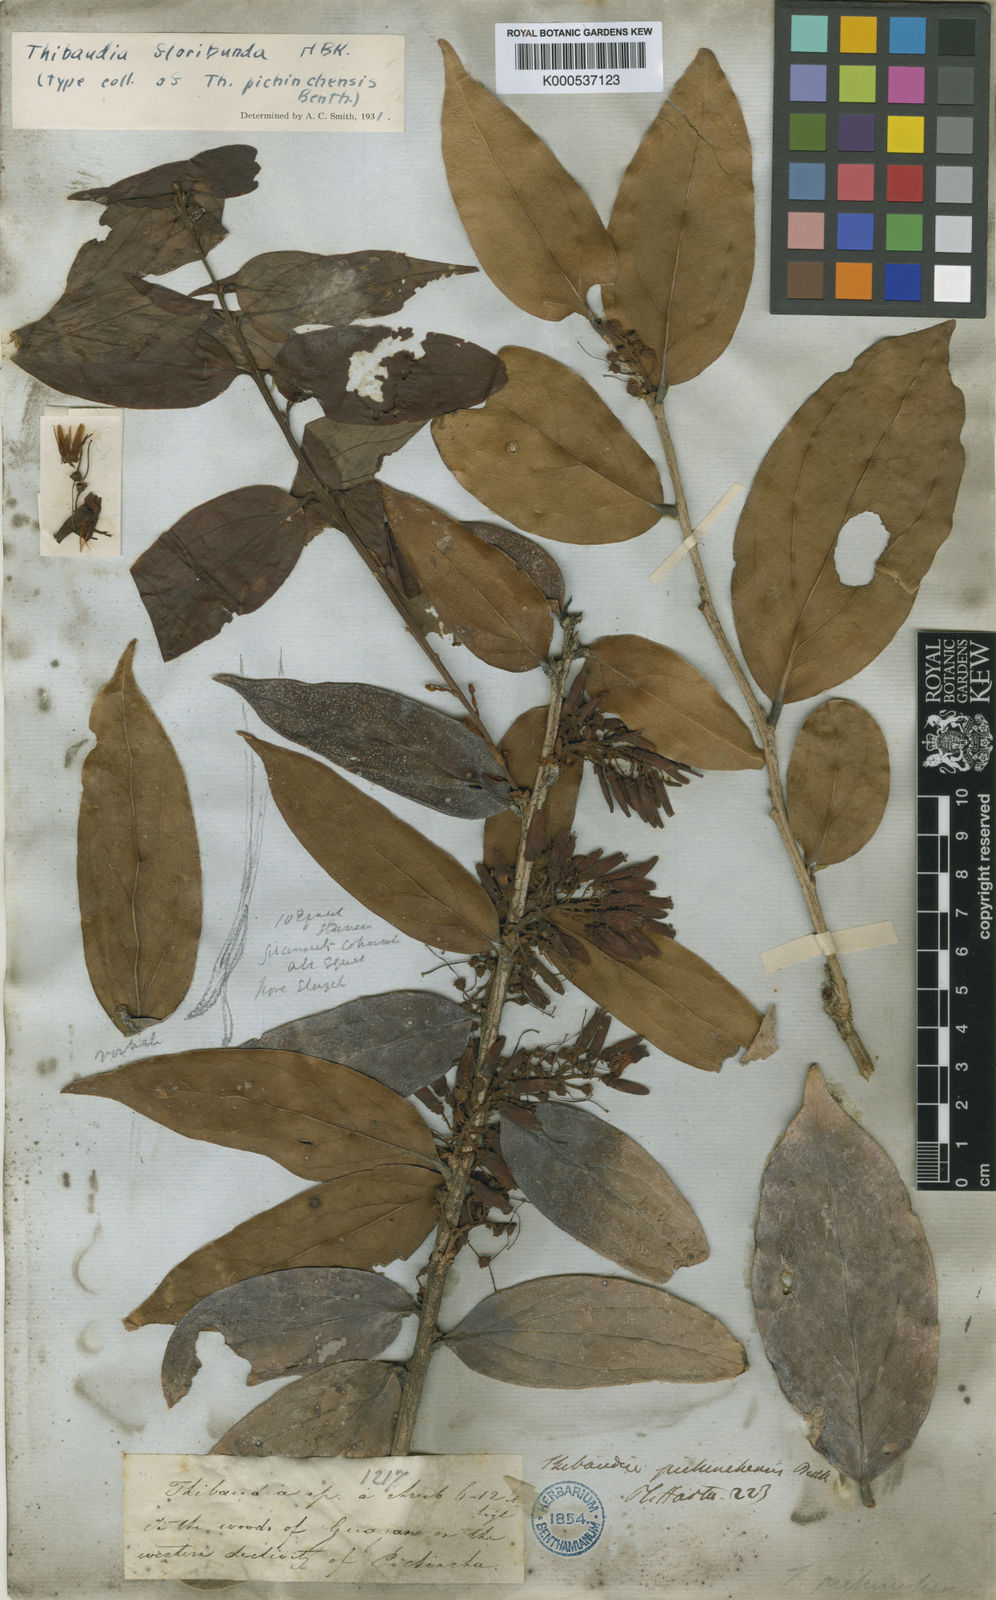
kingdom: Plantae
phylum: Tracheophyta
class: Magnoliopsida
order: Ericales
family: Ericaceae
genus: Thibaudia
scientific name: Thibaudia floribunda
